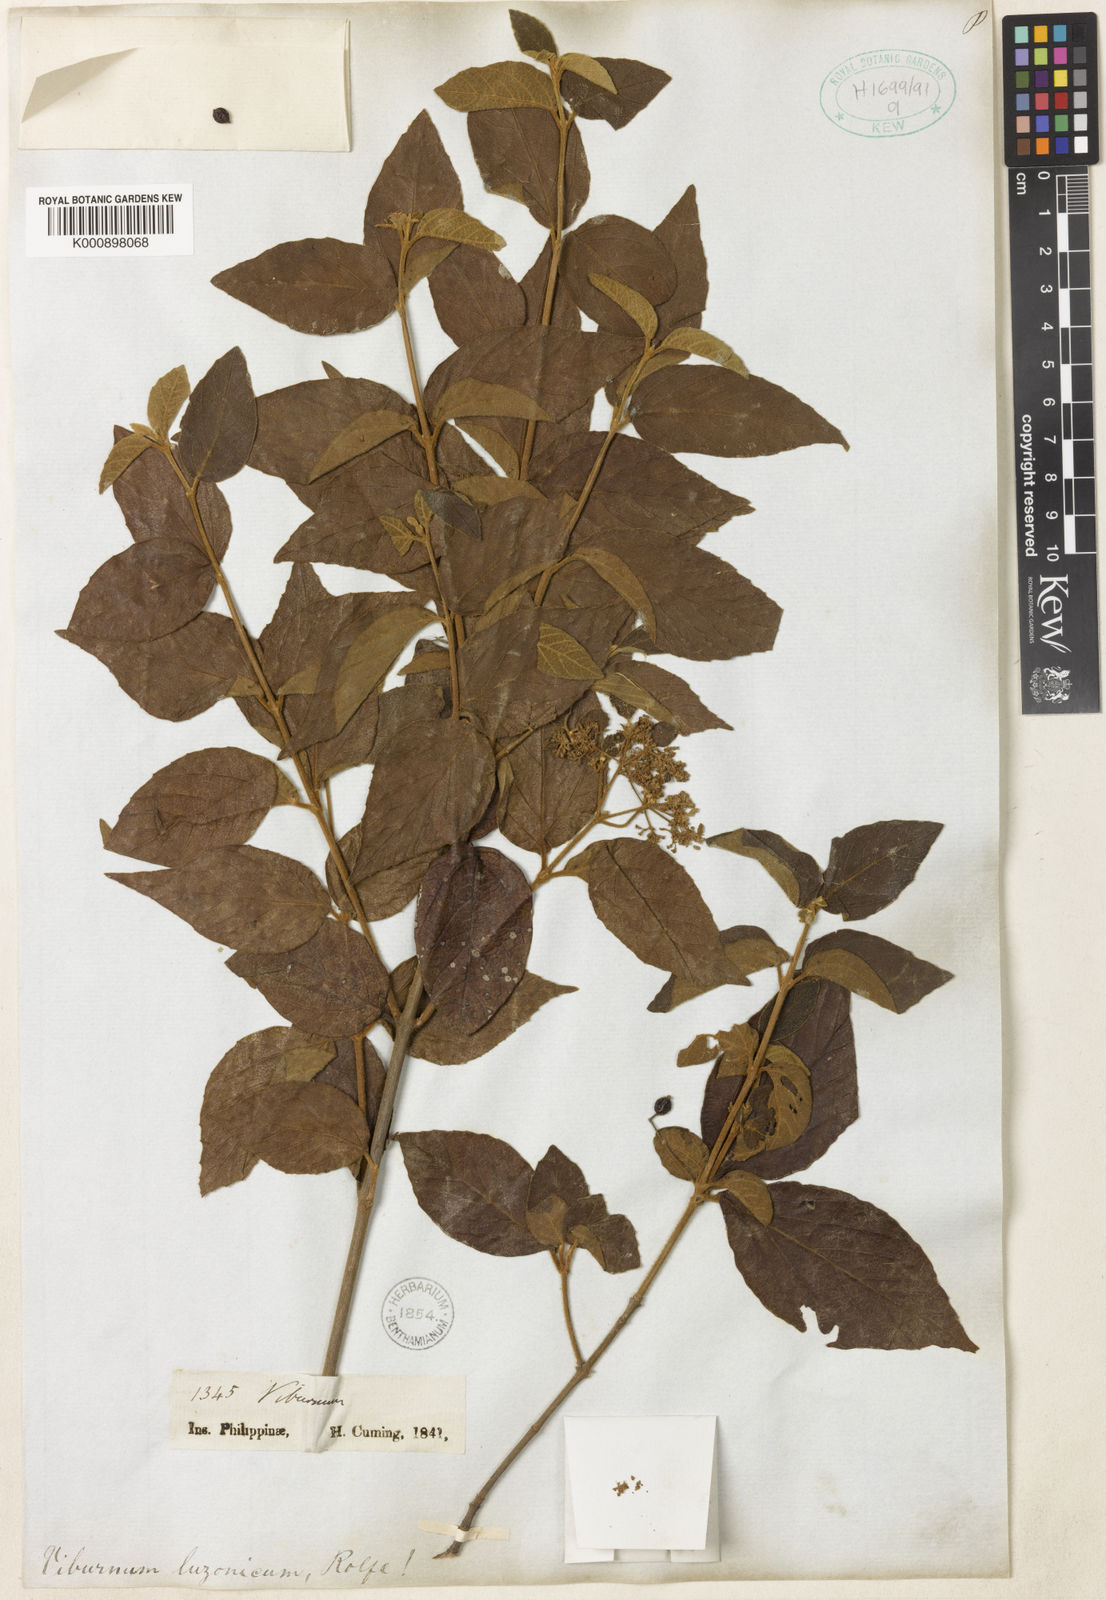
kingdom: Plantae
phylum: Tracheophyta
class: Magnoliopsida
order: Dipsacales
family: Viburnaceae
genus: Viburnum
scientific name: Viburnum luzonicum
